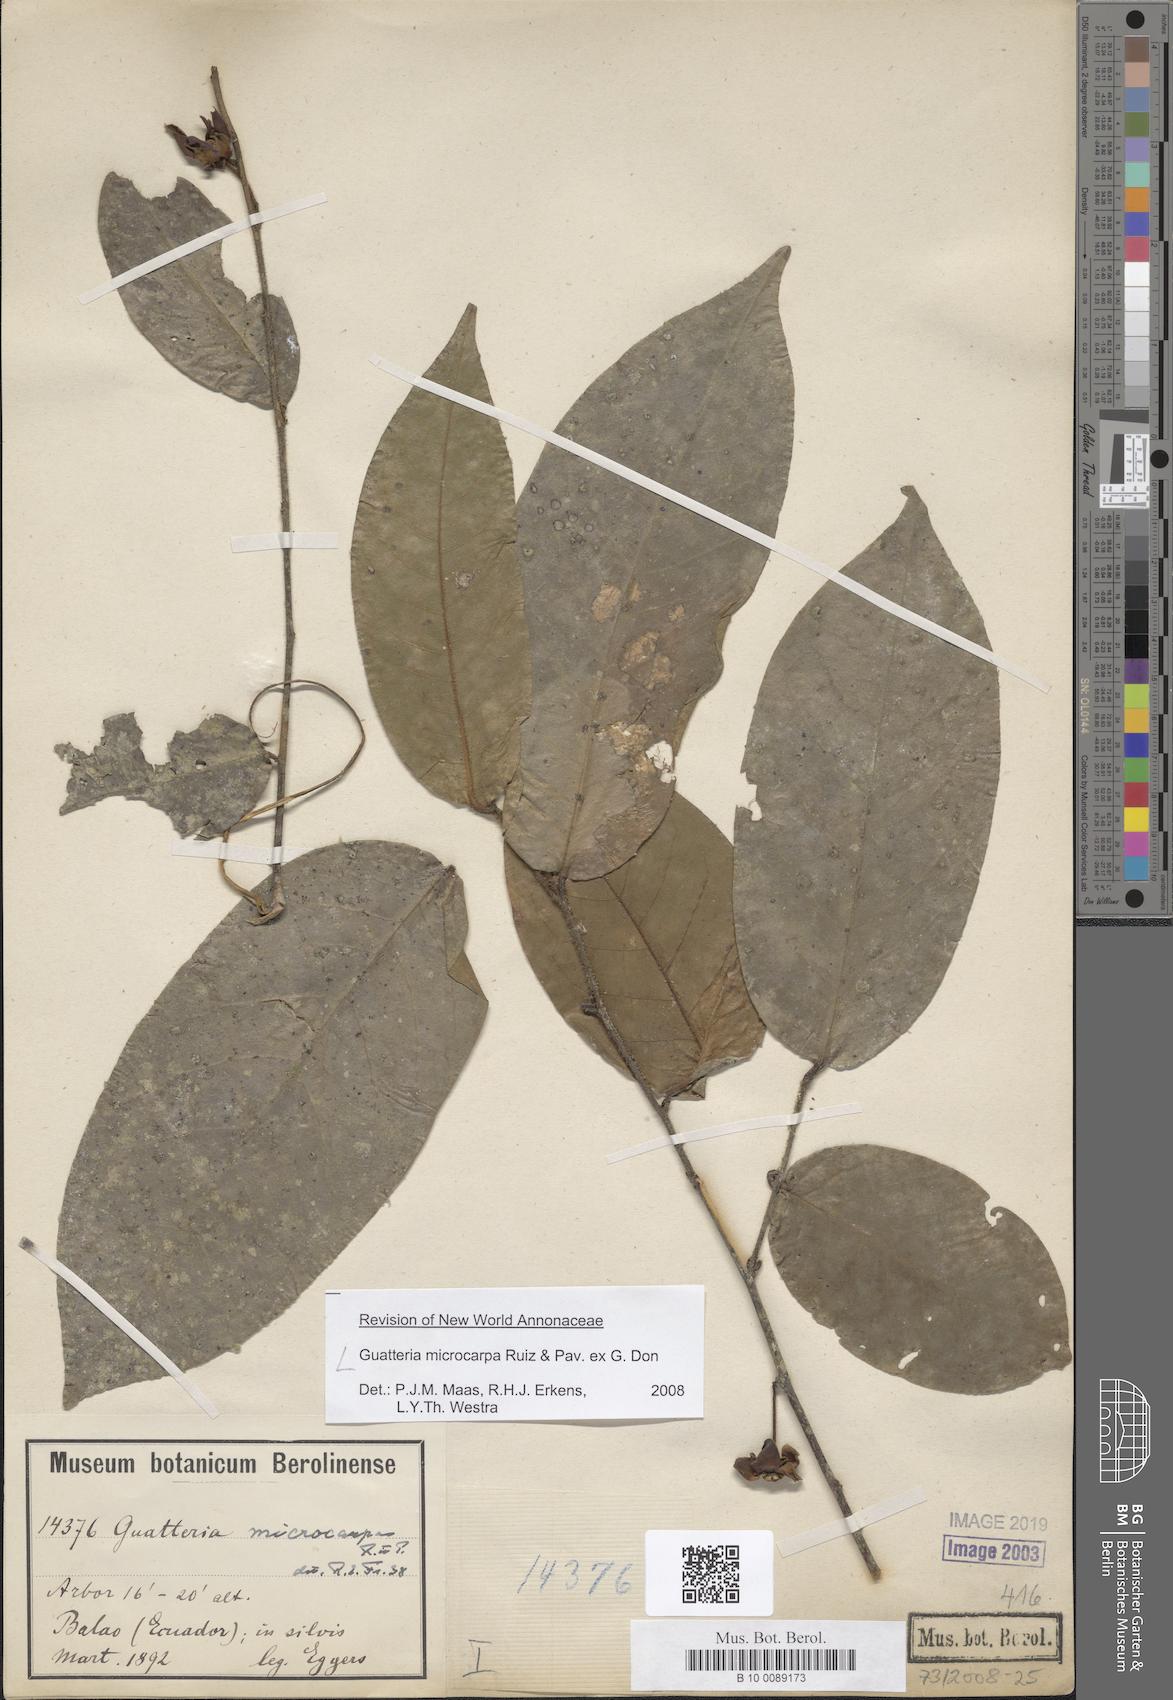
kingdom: Plantae
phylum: Tracheophyta
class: Magnoliopsida
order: Magnoliales
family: Annonaceae
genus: Guatteria
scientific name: Guatteria microcarpa
